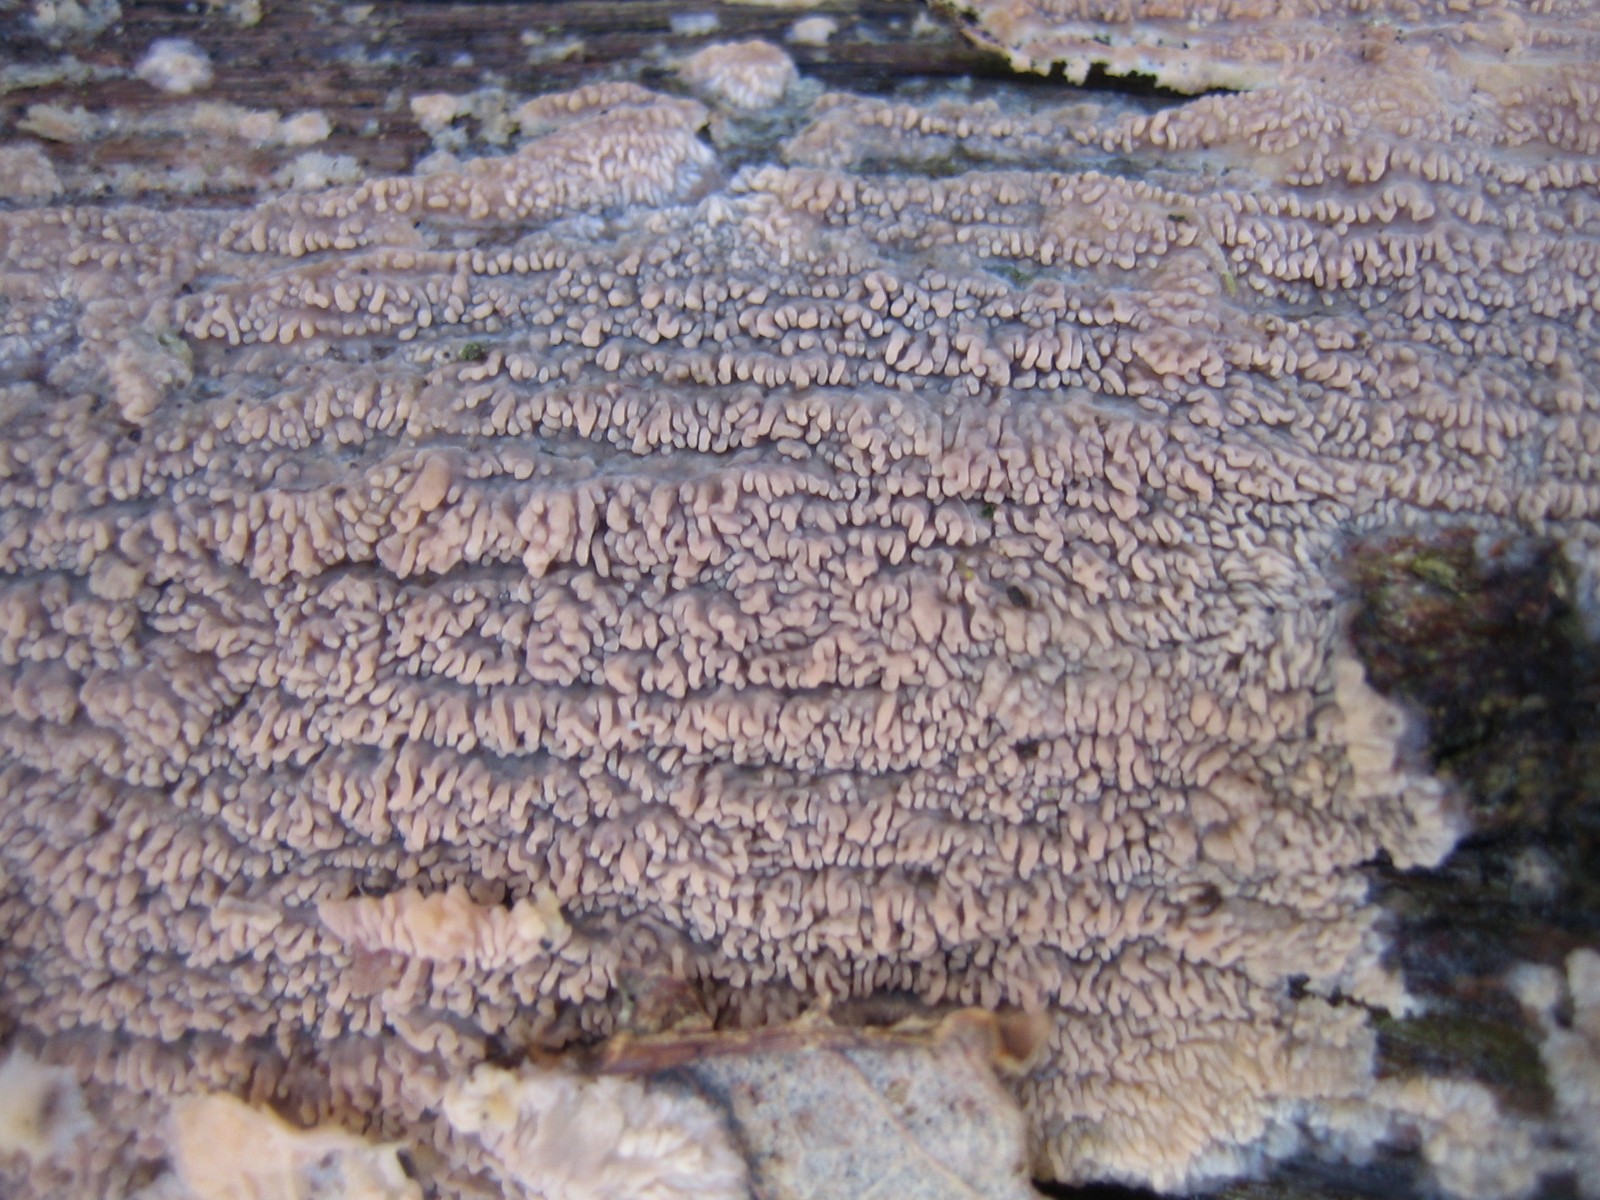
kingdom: Fungi
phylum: Basidiomycota
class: Agaricomycetes
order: Polyporales
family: Meruliaceae
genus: Phlebia
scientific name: Phlebia radiata
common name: stråle-åresvamp
